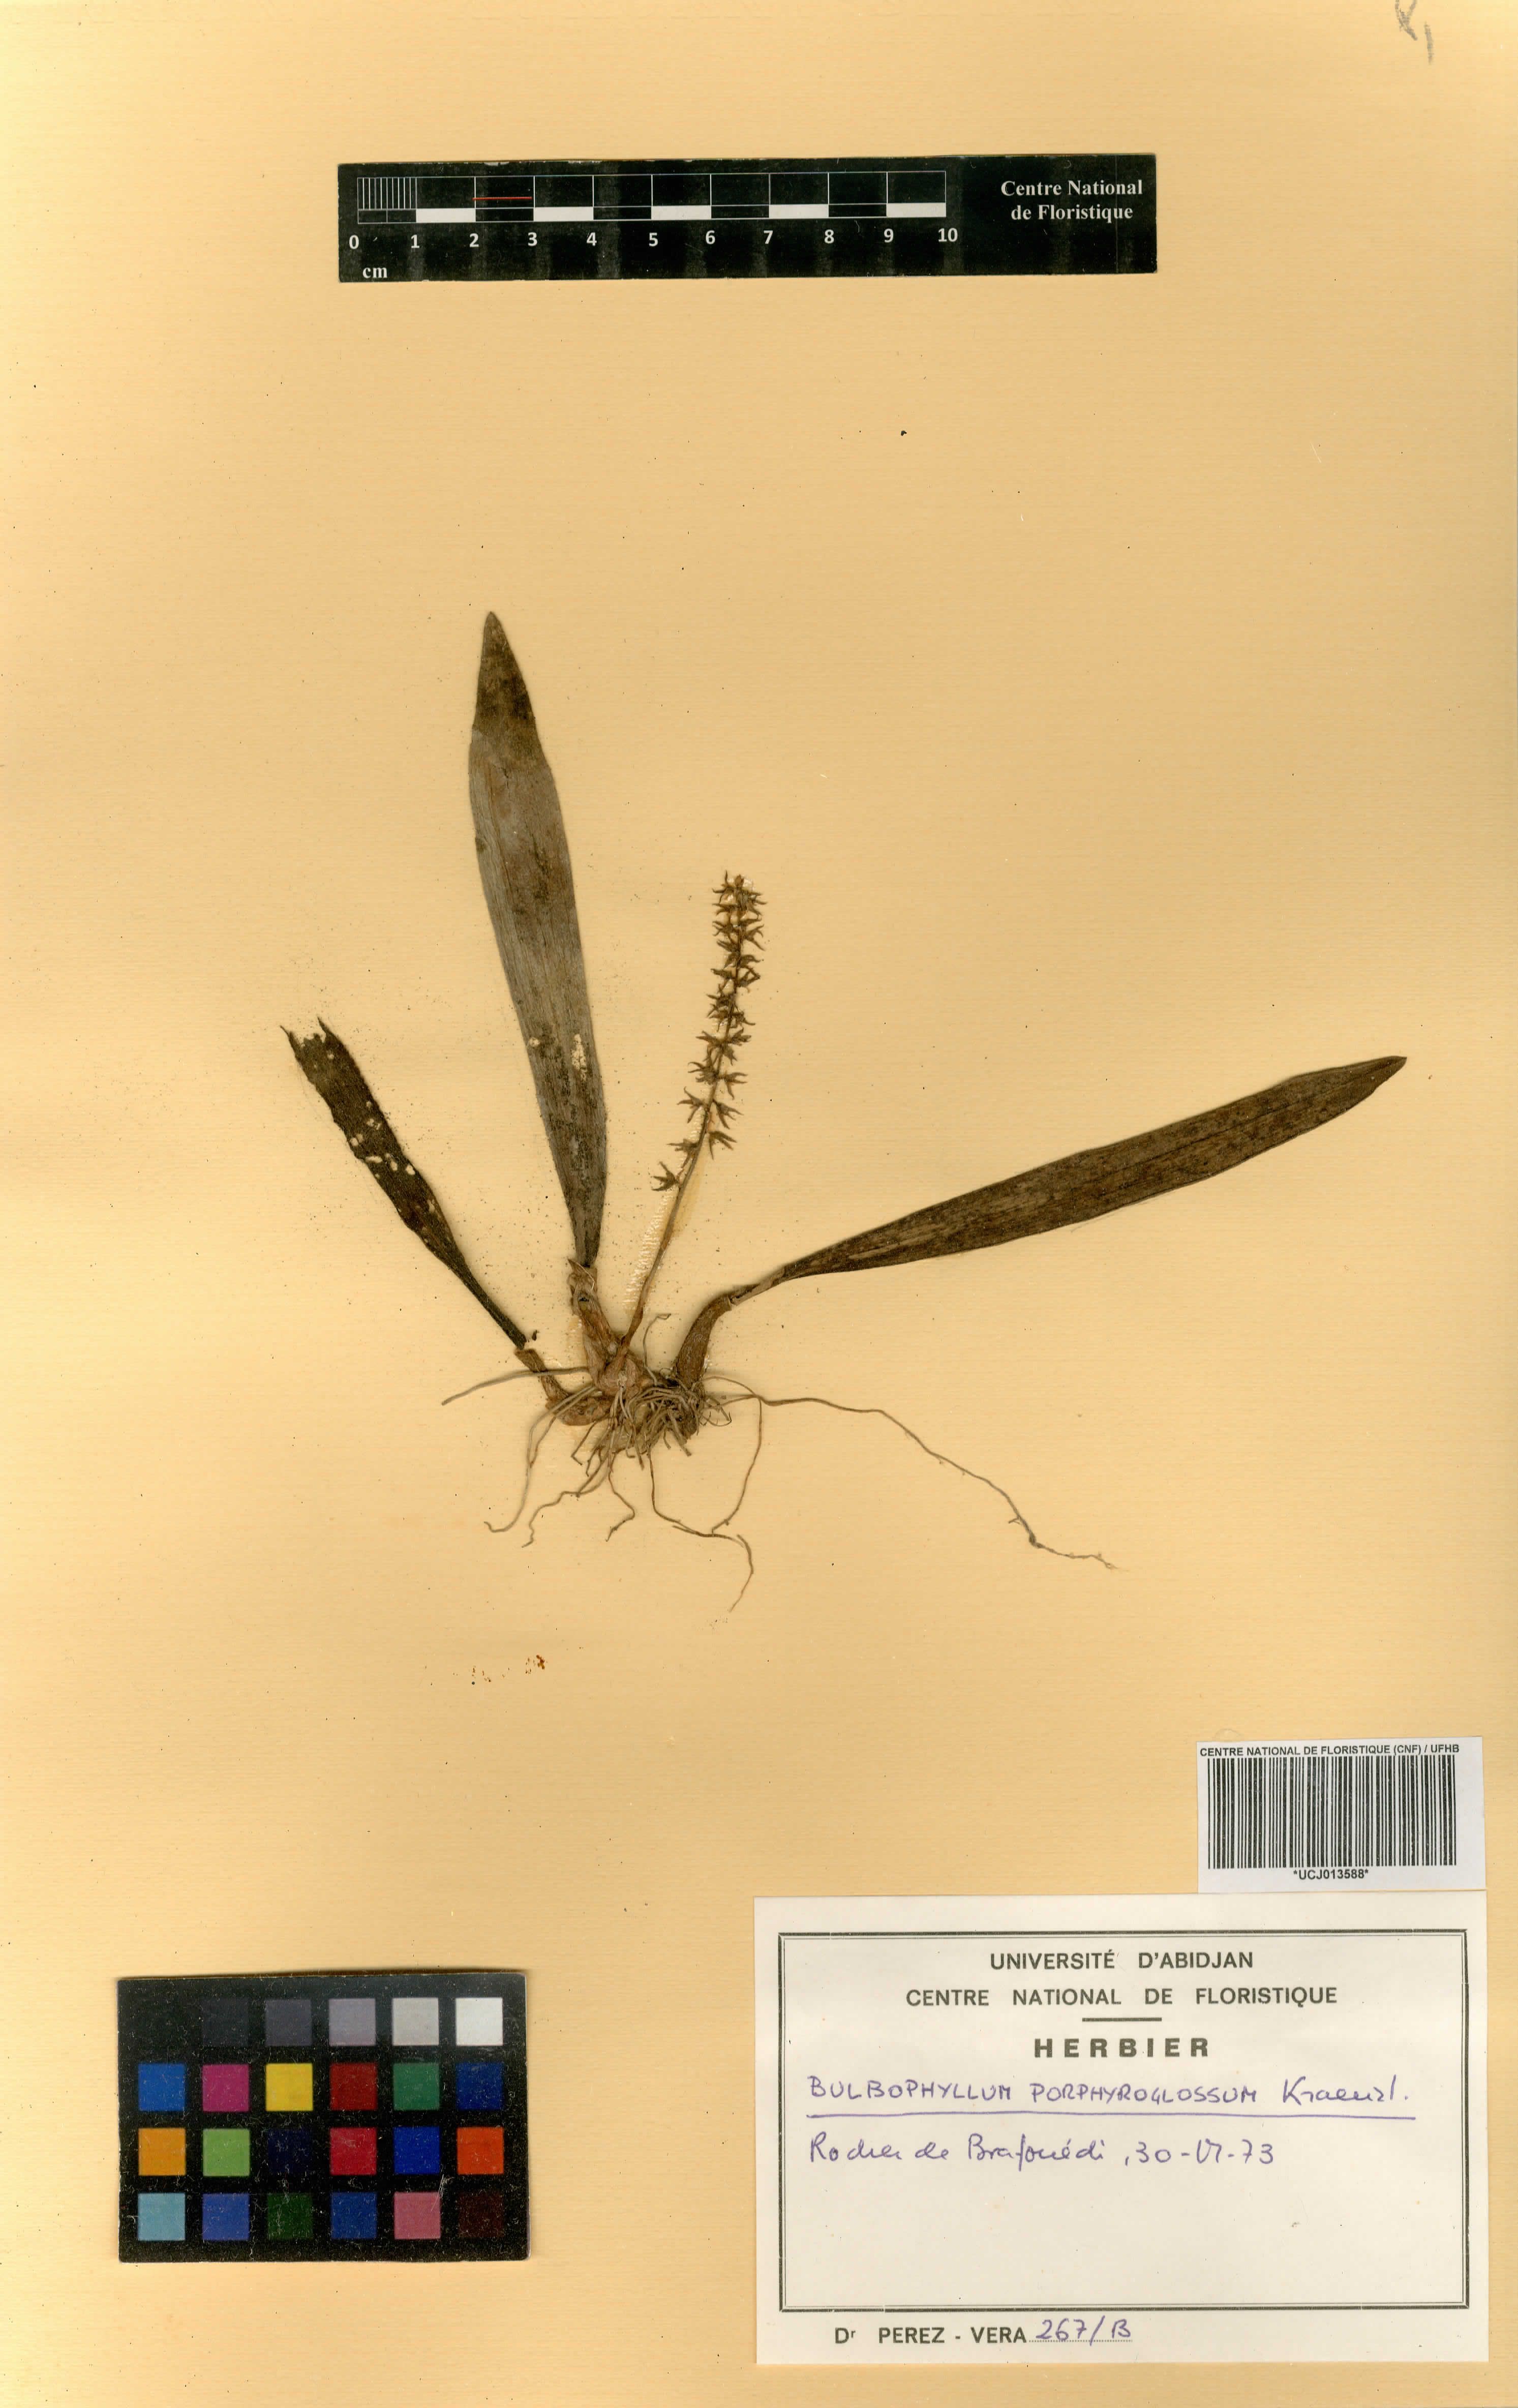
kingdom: Plantae
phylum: Tracheophyta
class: Liliopsida
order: Asparagales
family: Orchidaceae
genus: Bulbophyllum
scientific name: Bulbophyllum pumilum
